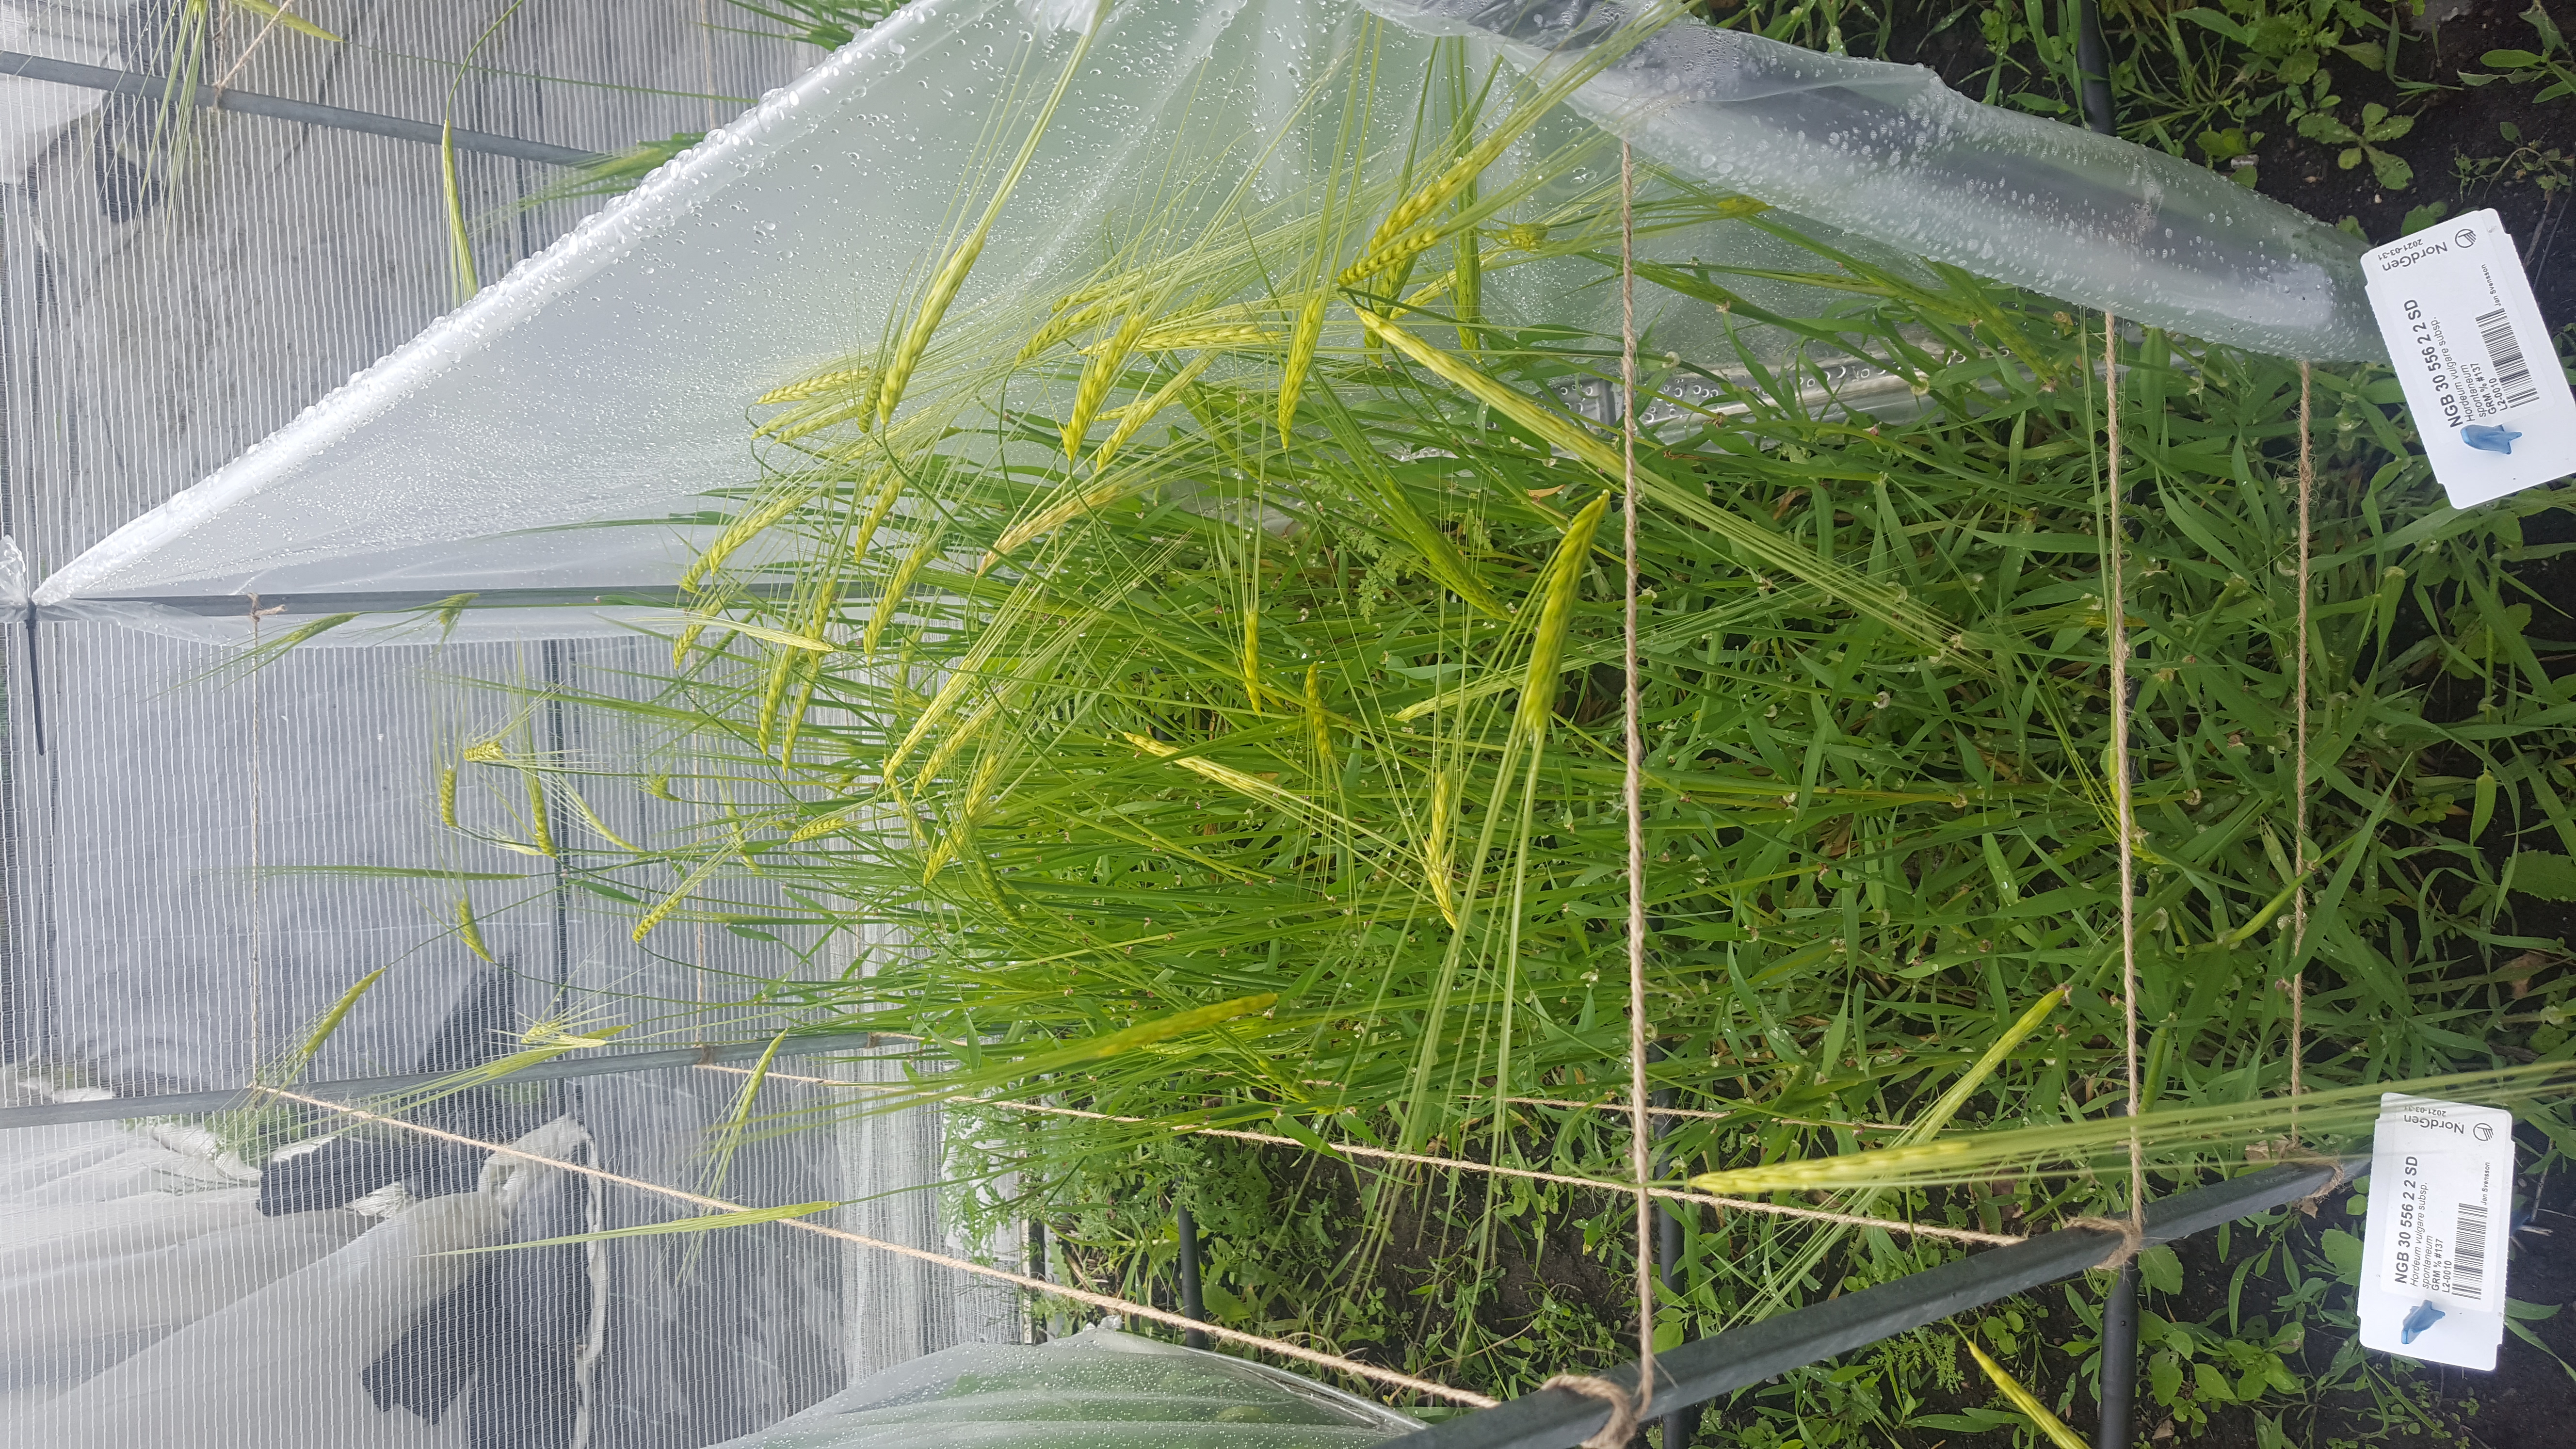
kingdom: Plantae
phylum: Tracheophyta
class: Liliopsida
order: Poales
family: Poaceae
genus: Hordeum
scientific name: Hordeum spontaneum
